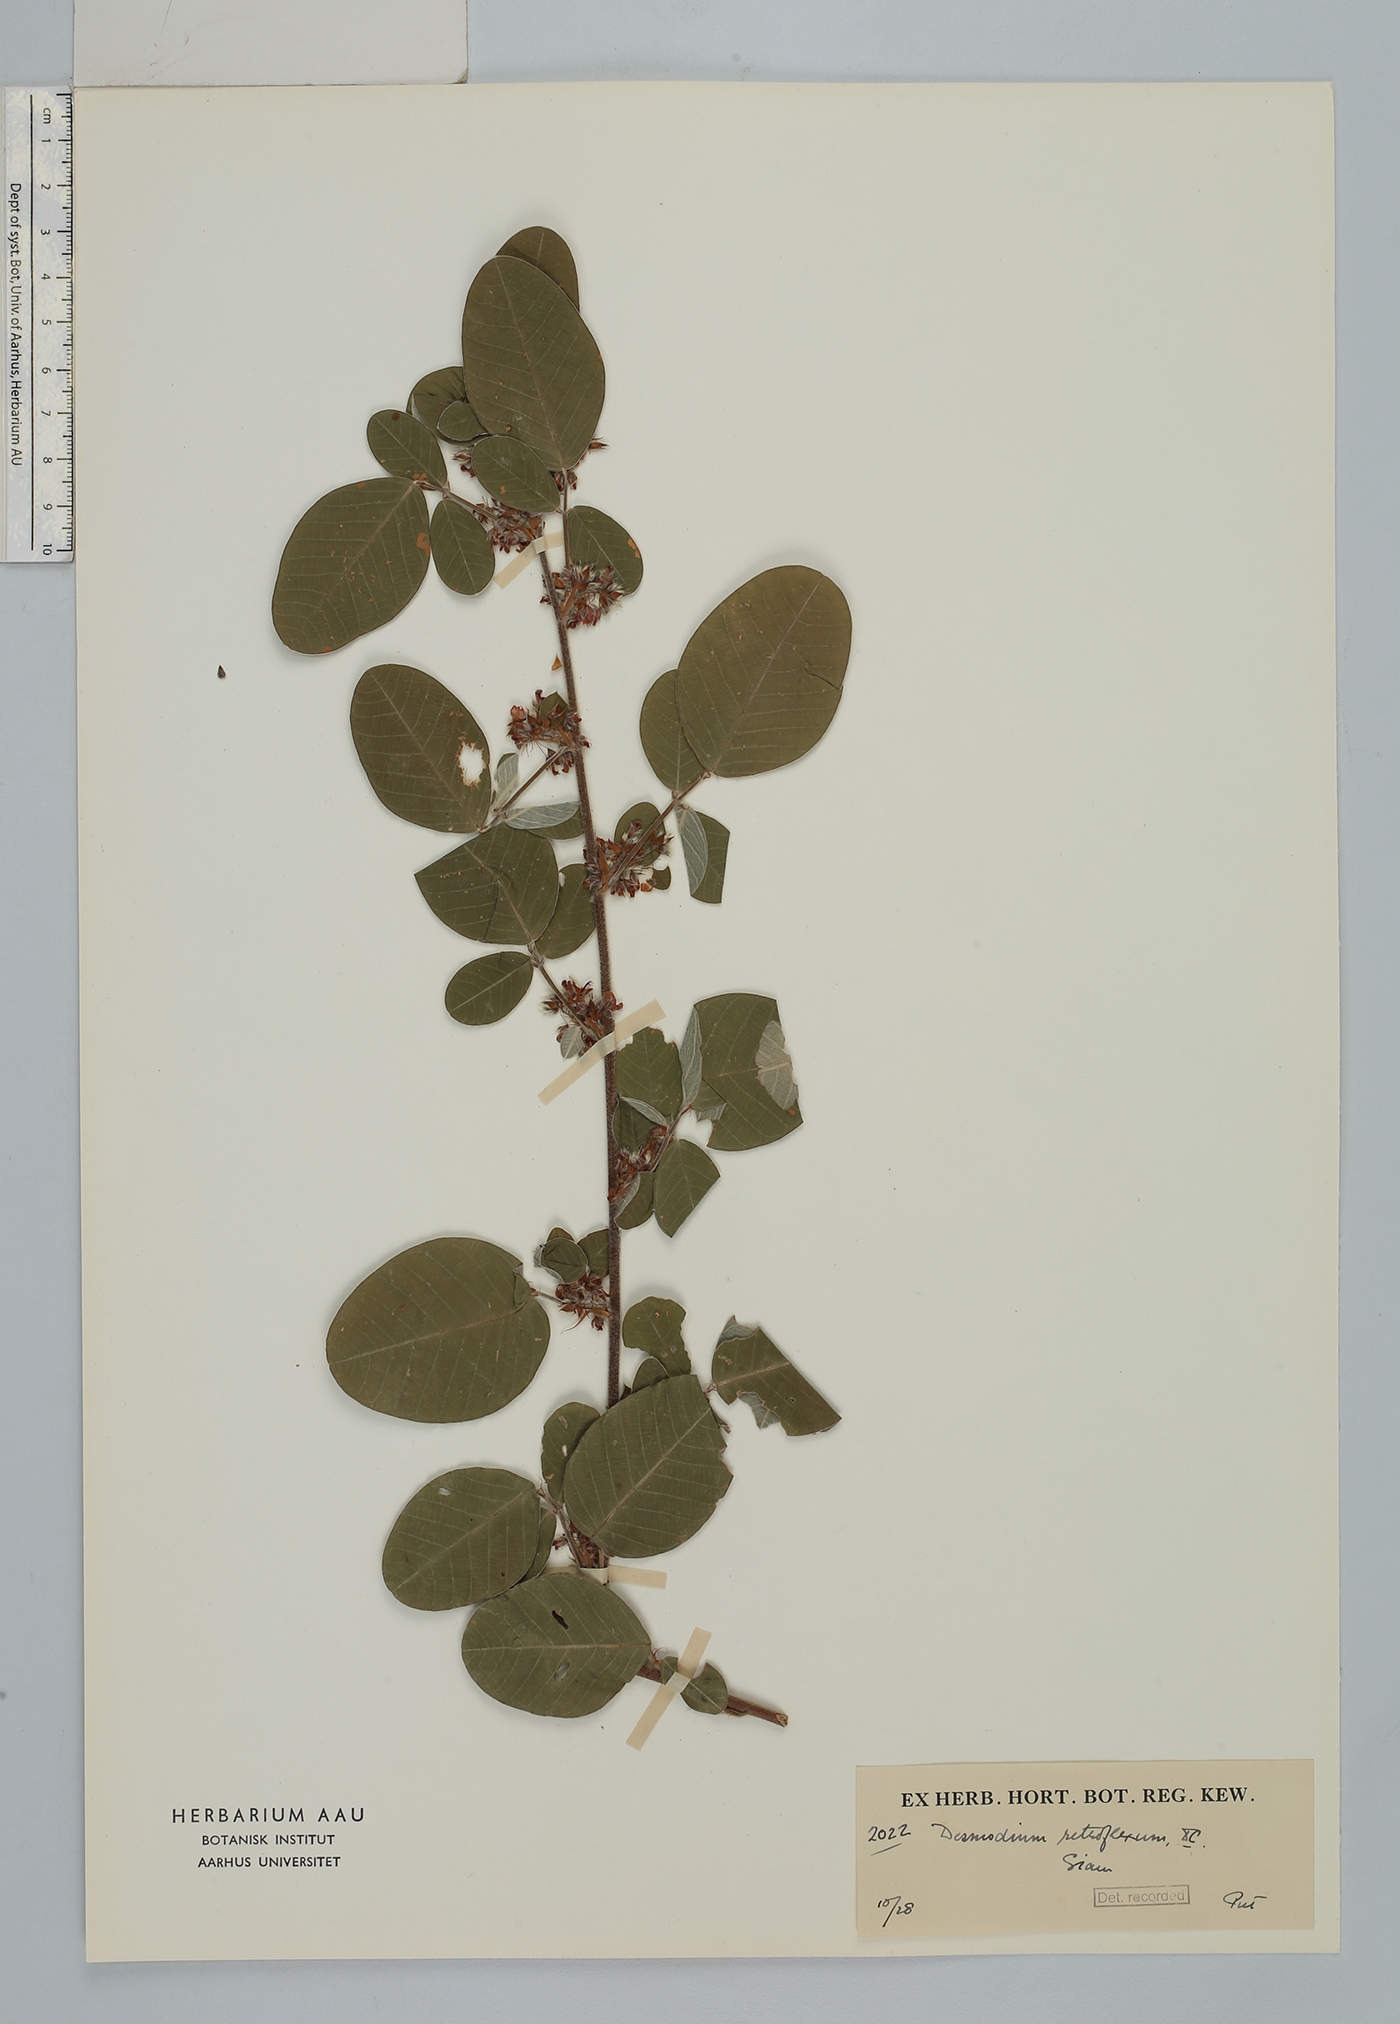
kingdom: Plantae
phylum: Tracheophyta
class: Magnoliopsida
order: Fabales
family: Fabaceae
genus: Grona
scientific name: Grona styracifolia
